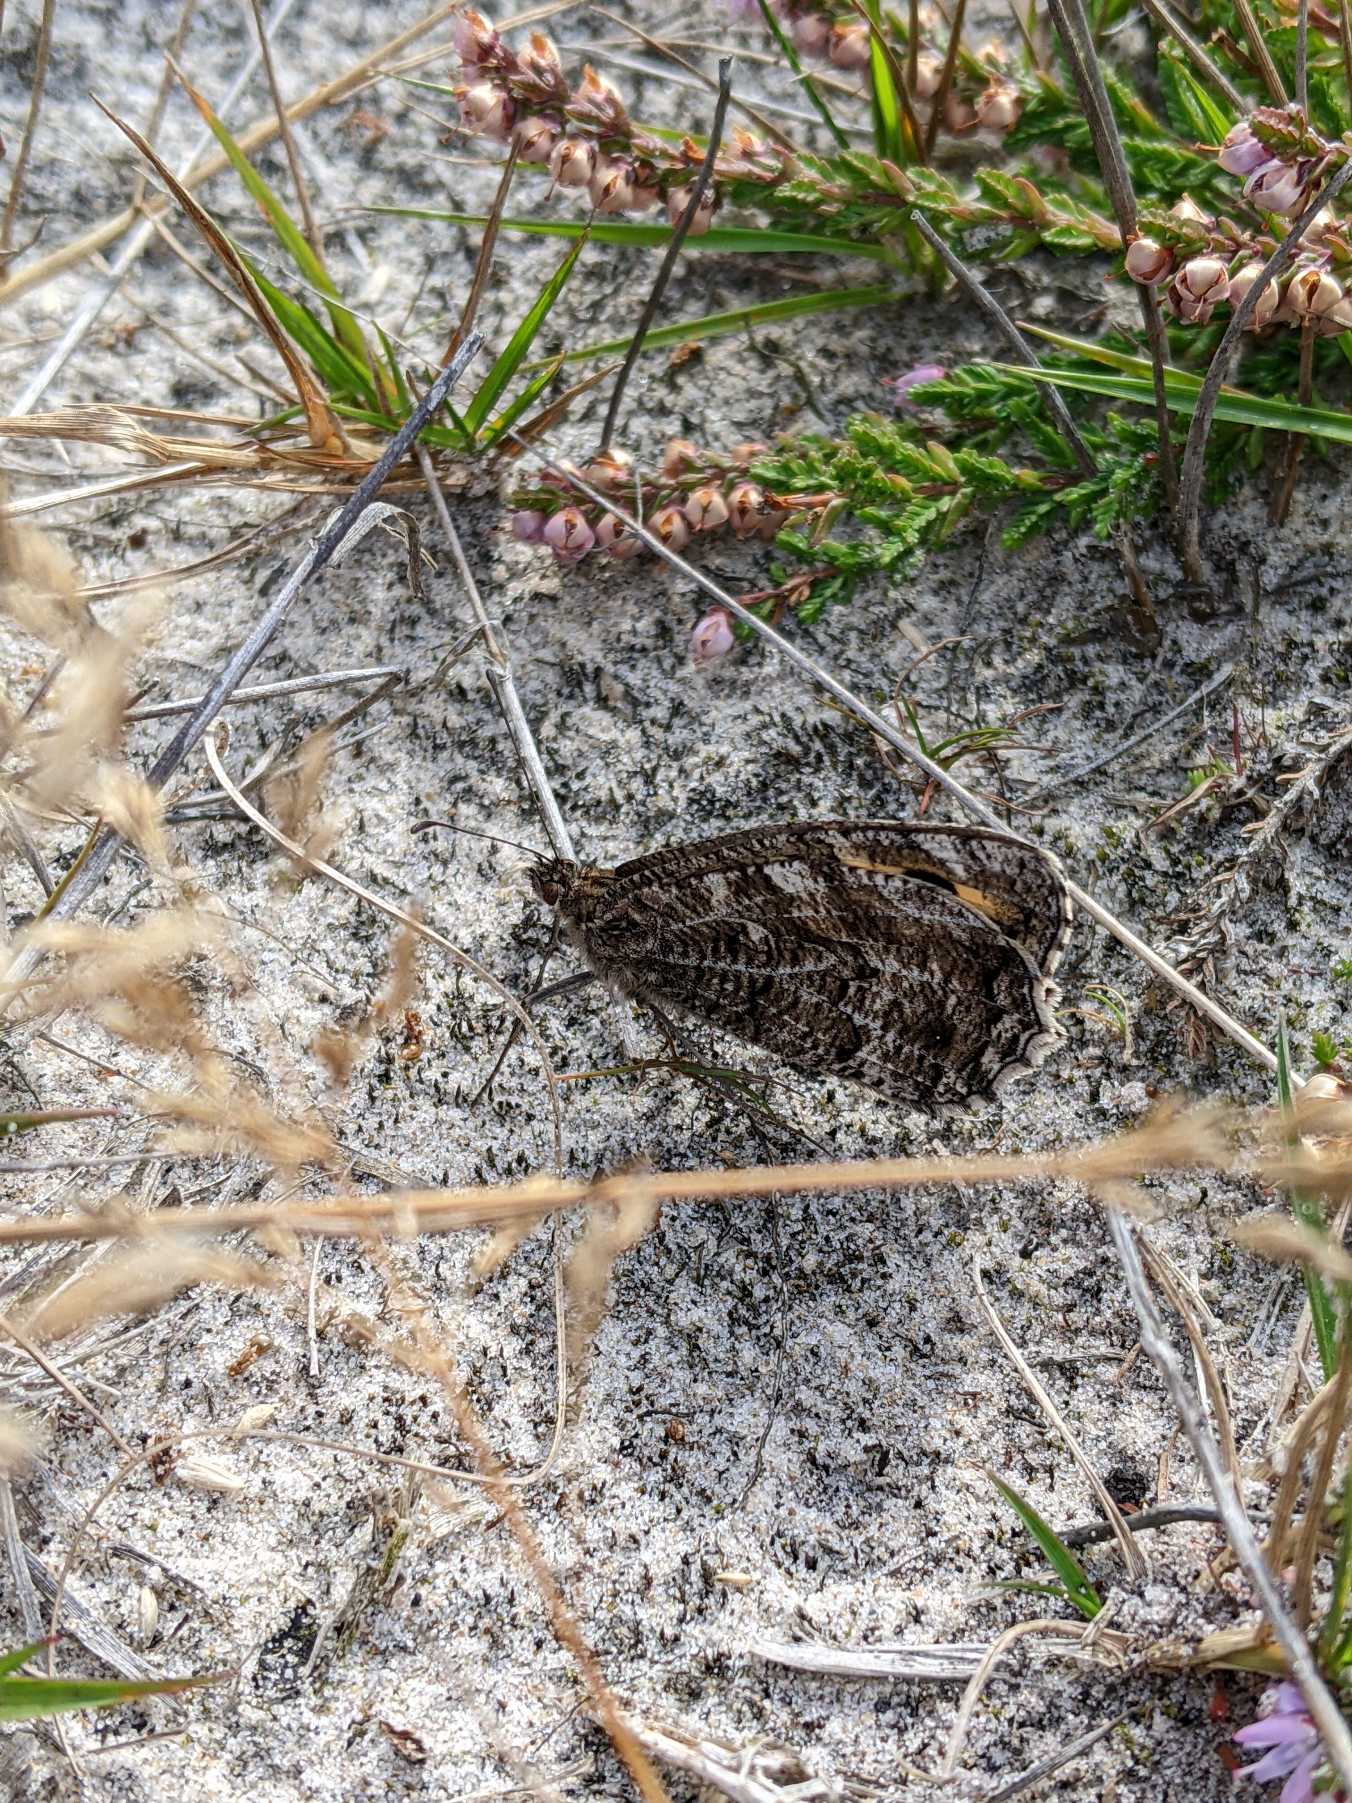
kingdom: Animalia
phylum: Arthropoda
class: Insecta
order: Lepidoptera
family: Nymphalidae
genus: Hipparchia
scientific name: Hipparchia semele
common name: Sandrandøje
